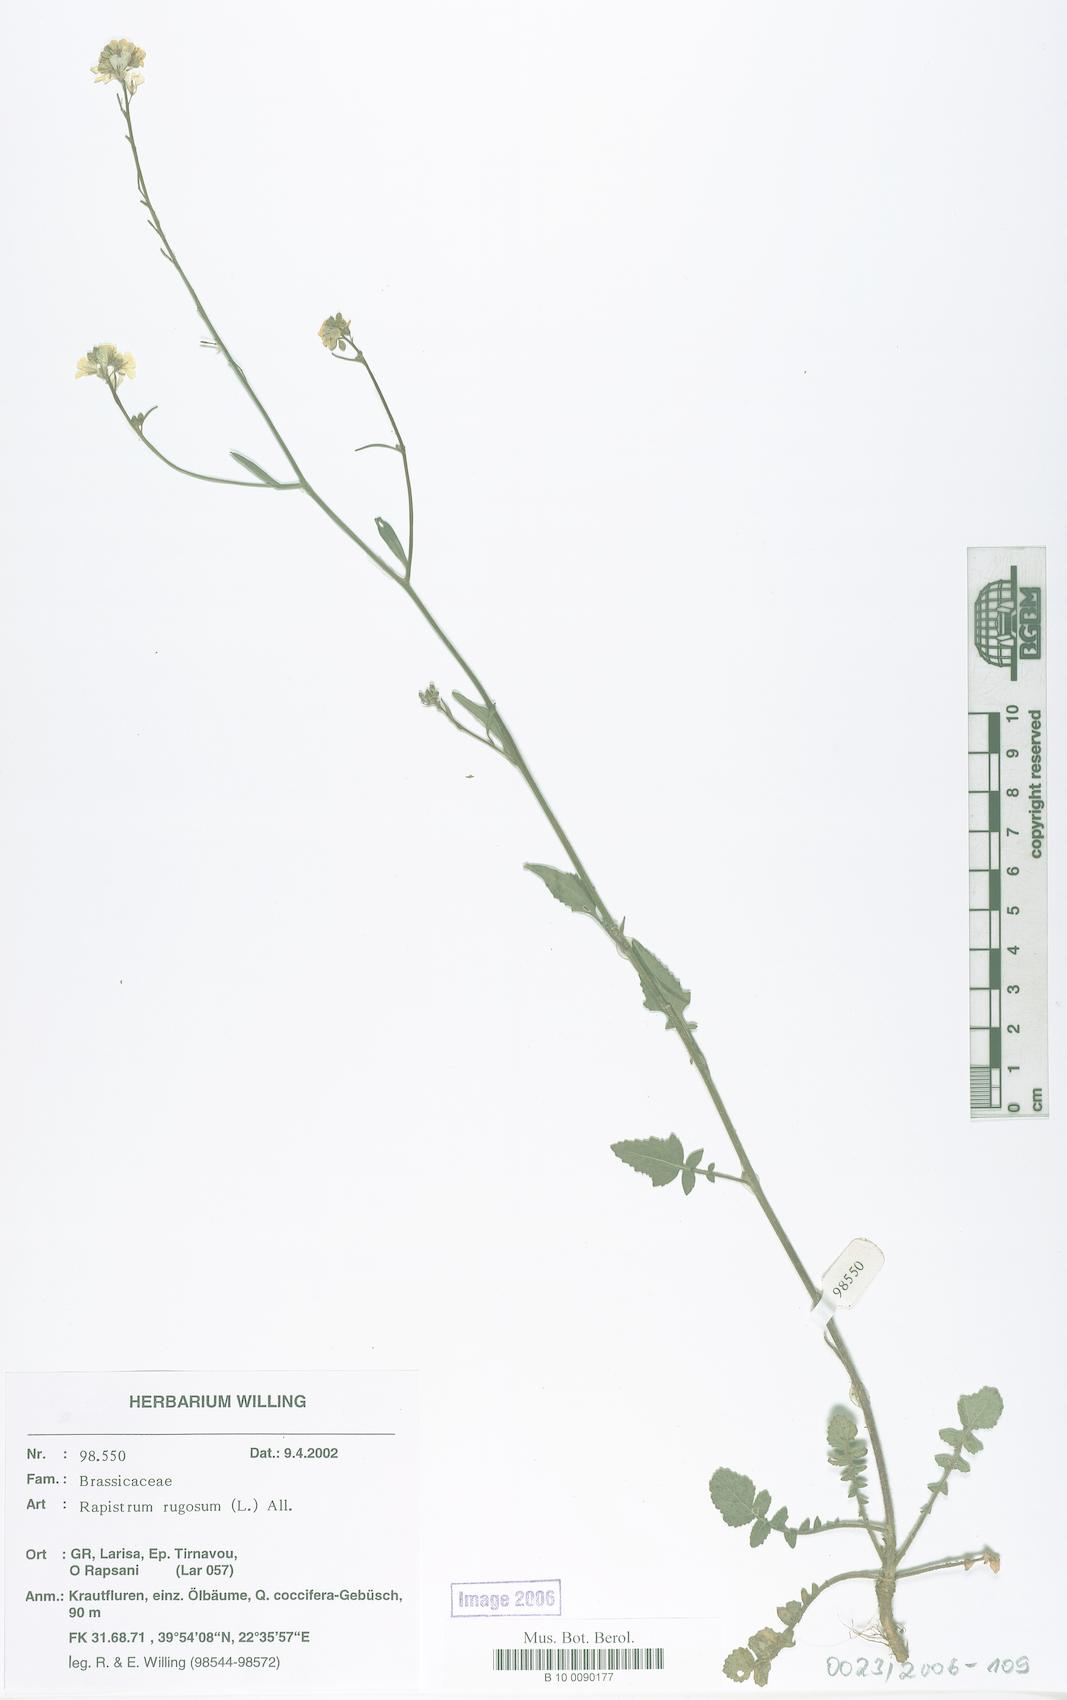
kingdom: Plantae
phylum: Tracheophyta
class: Magnoliopsida
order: Brassicales
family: Brassicaceae
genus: Rapistrum
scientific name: Rapistrum rugosum
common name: Annual bastardcabbage
